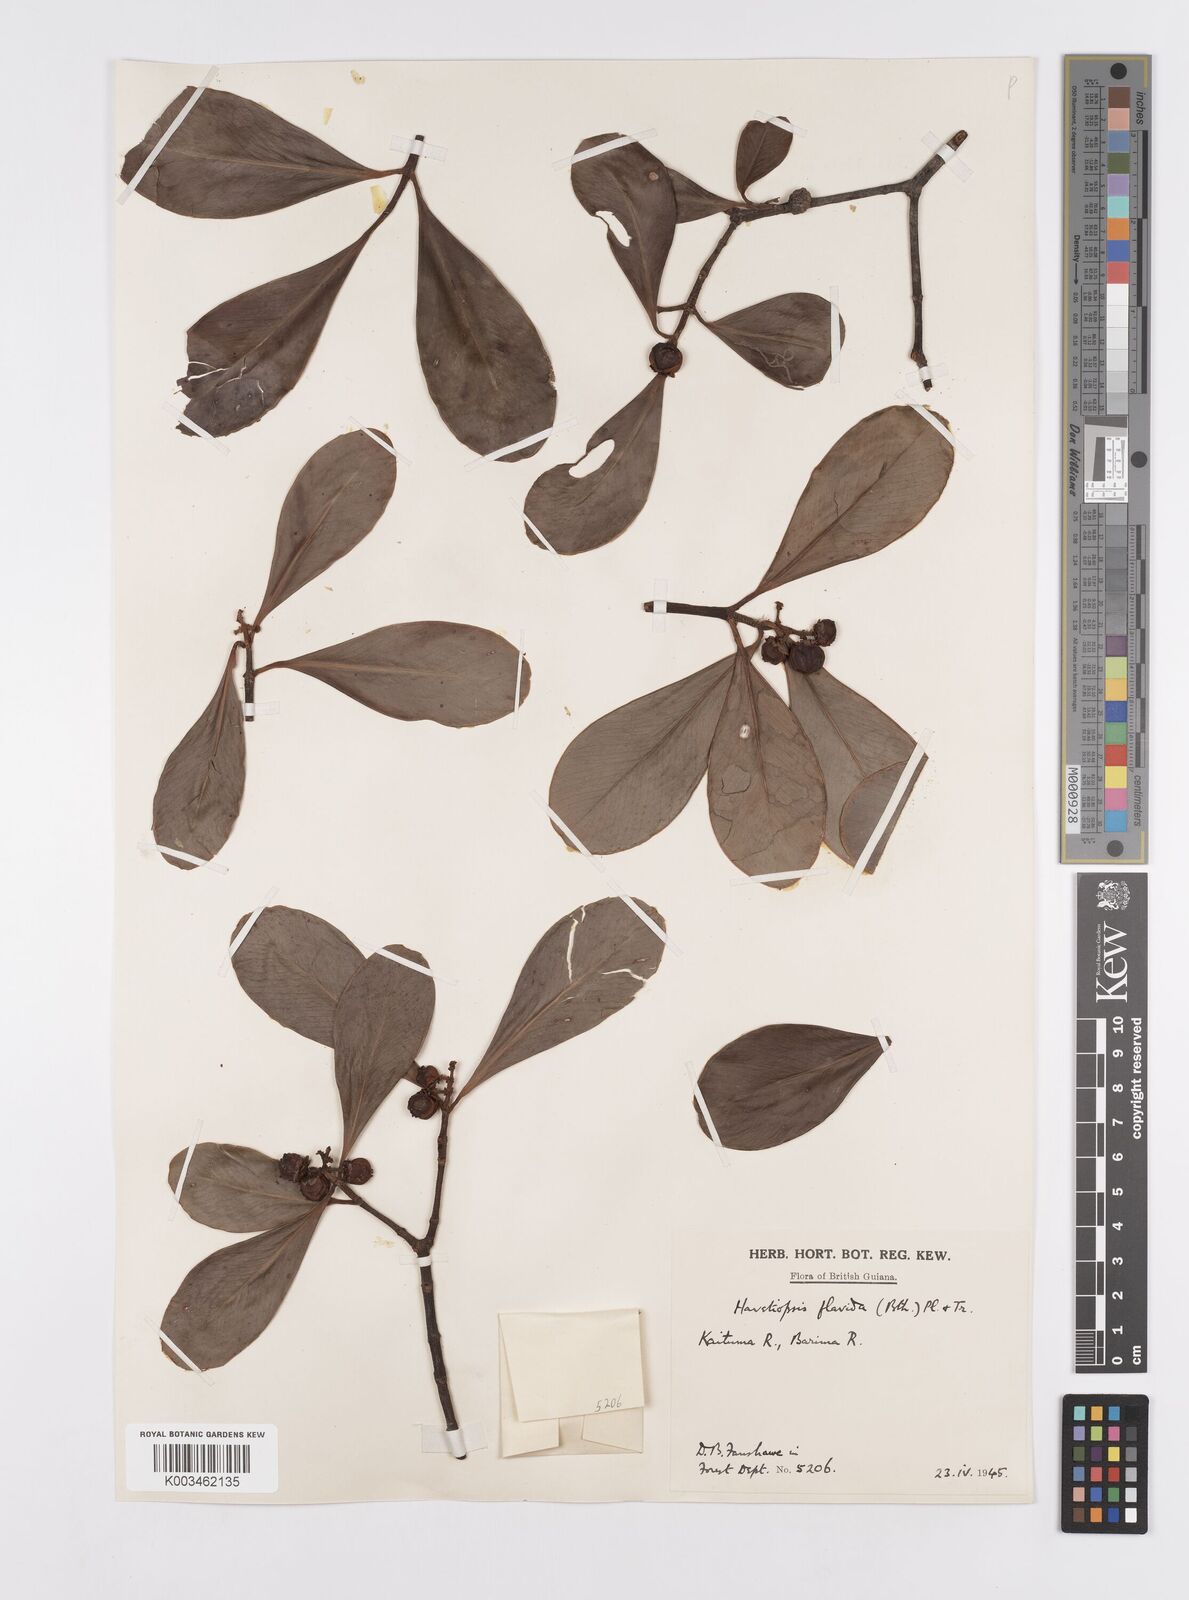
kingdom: Plantae
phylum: Tracheophyta
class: Magnoliopsida
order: Malpighiales
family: Clusiaceae
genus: Clusia
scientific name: Clusia flavida
